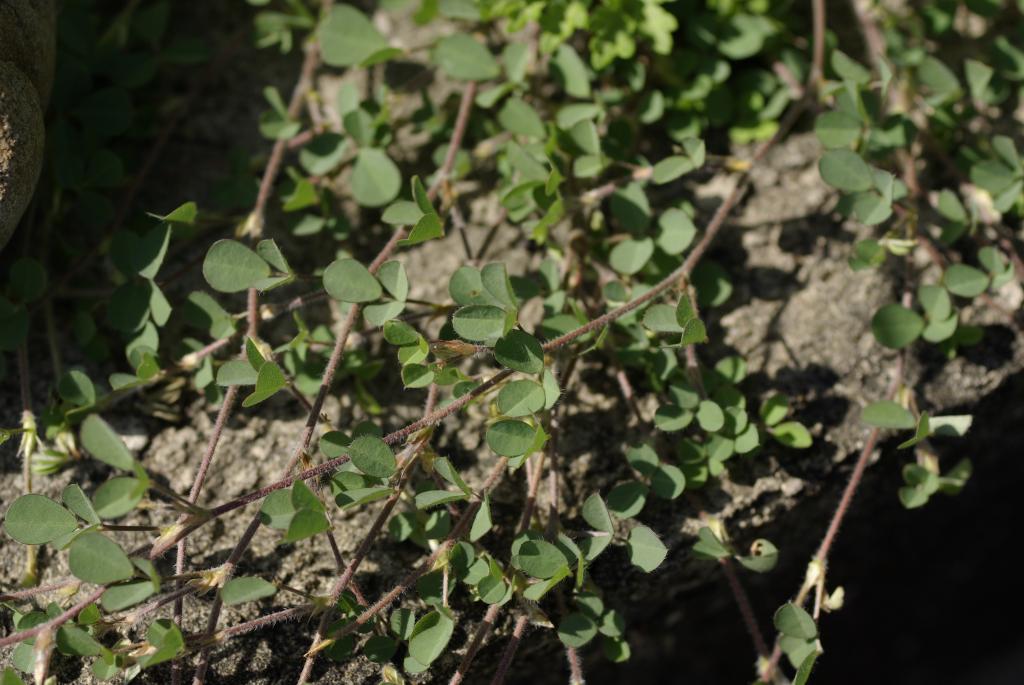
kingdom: Plantae
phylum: Tracheophyta
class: Magnoliopsida
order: Fabales
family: Fabaceae
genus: Grona
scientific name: Grona triflora
